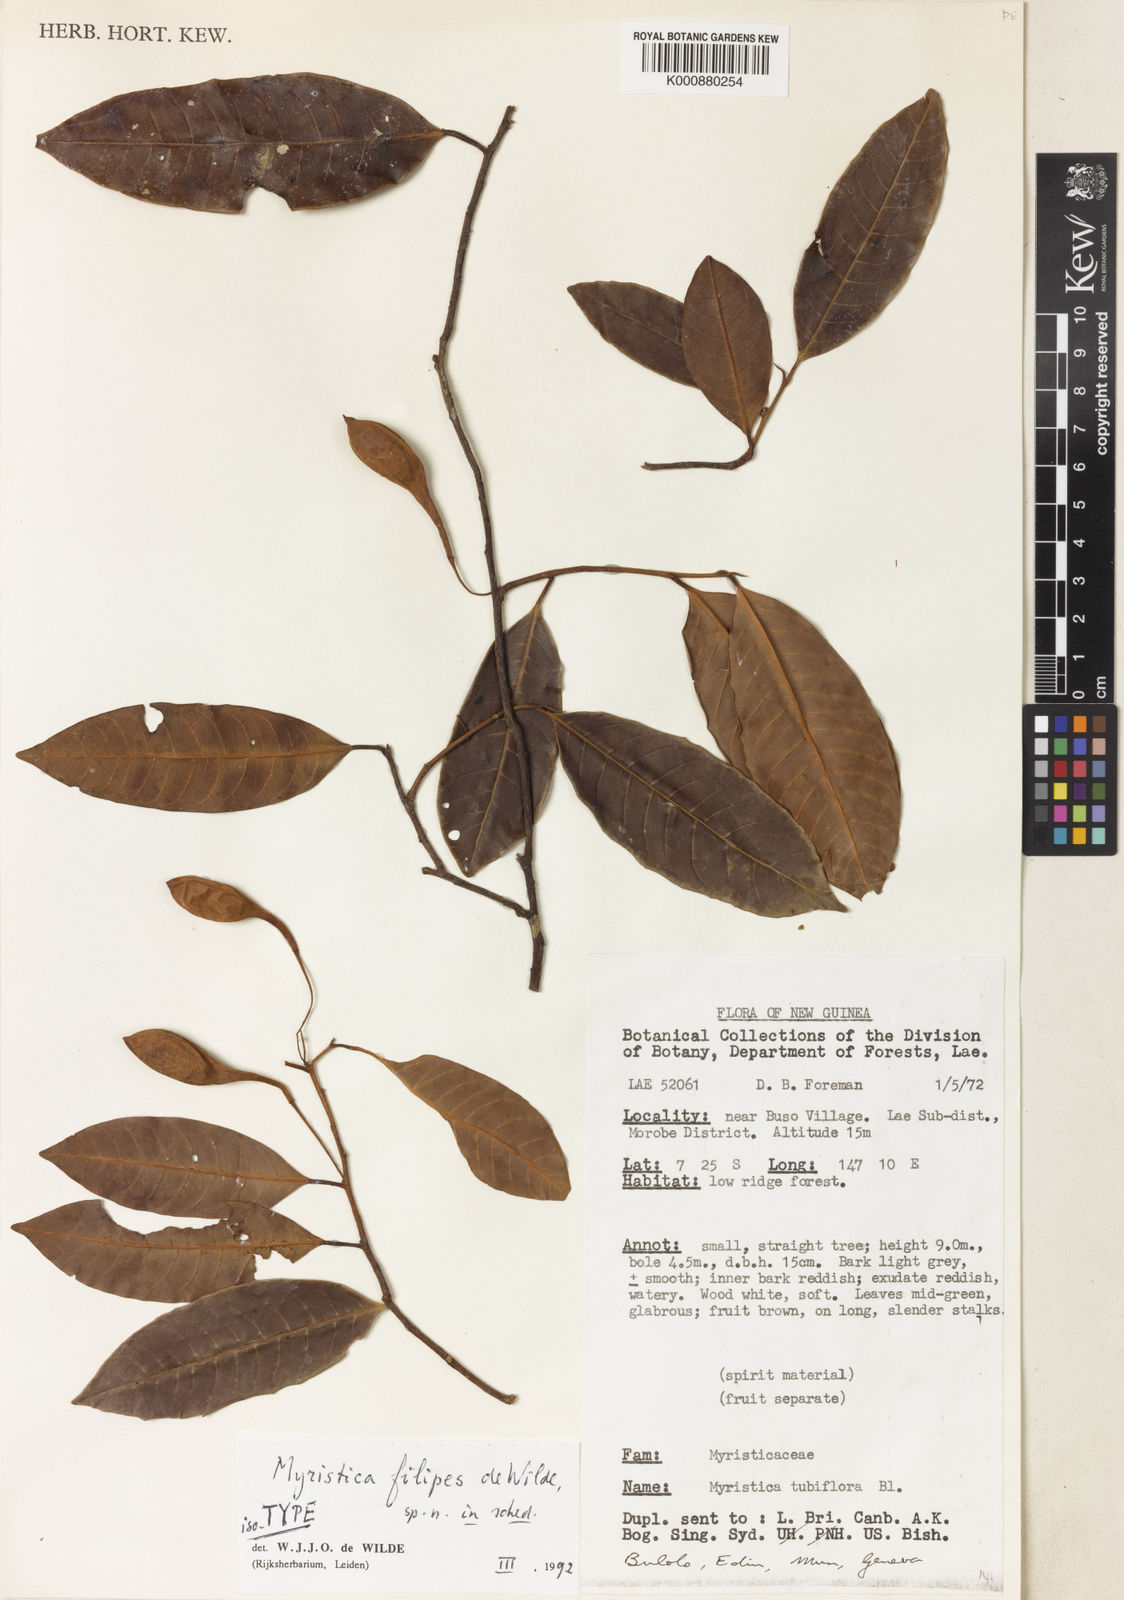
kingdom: Plantae
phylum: Tracheophyta
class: Magnoliopsida
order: Magnoliales
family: Myristicaceae
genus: Myristica
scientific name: Myristica filipes
